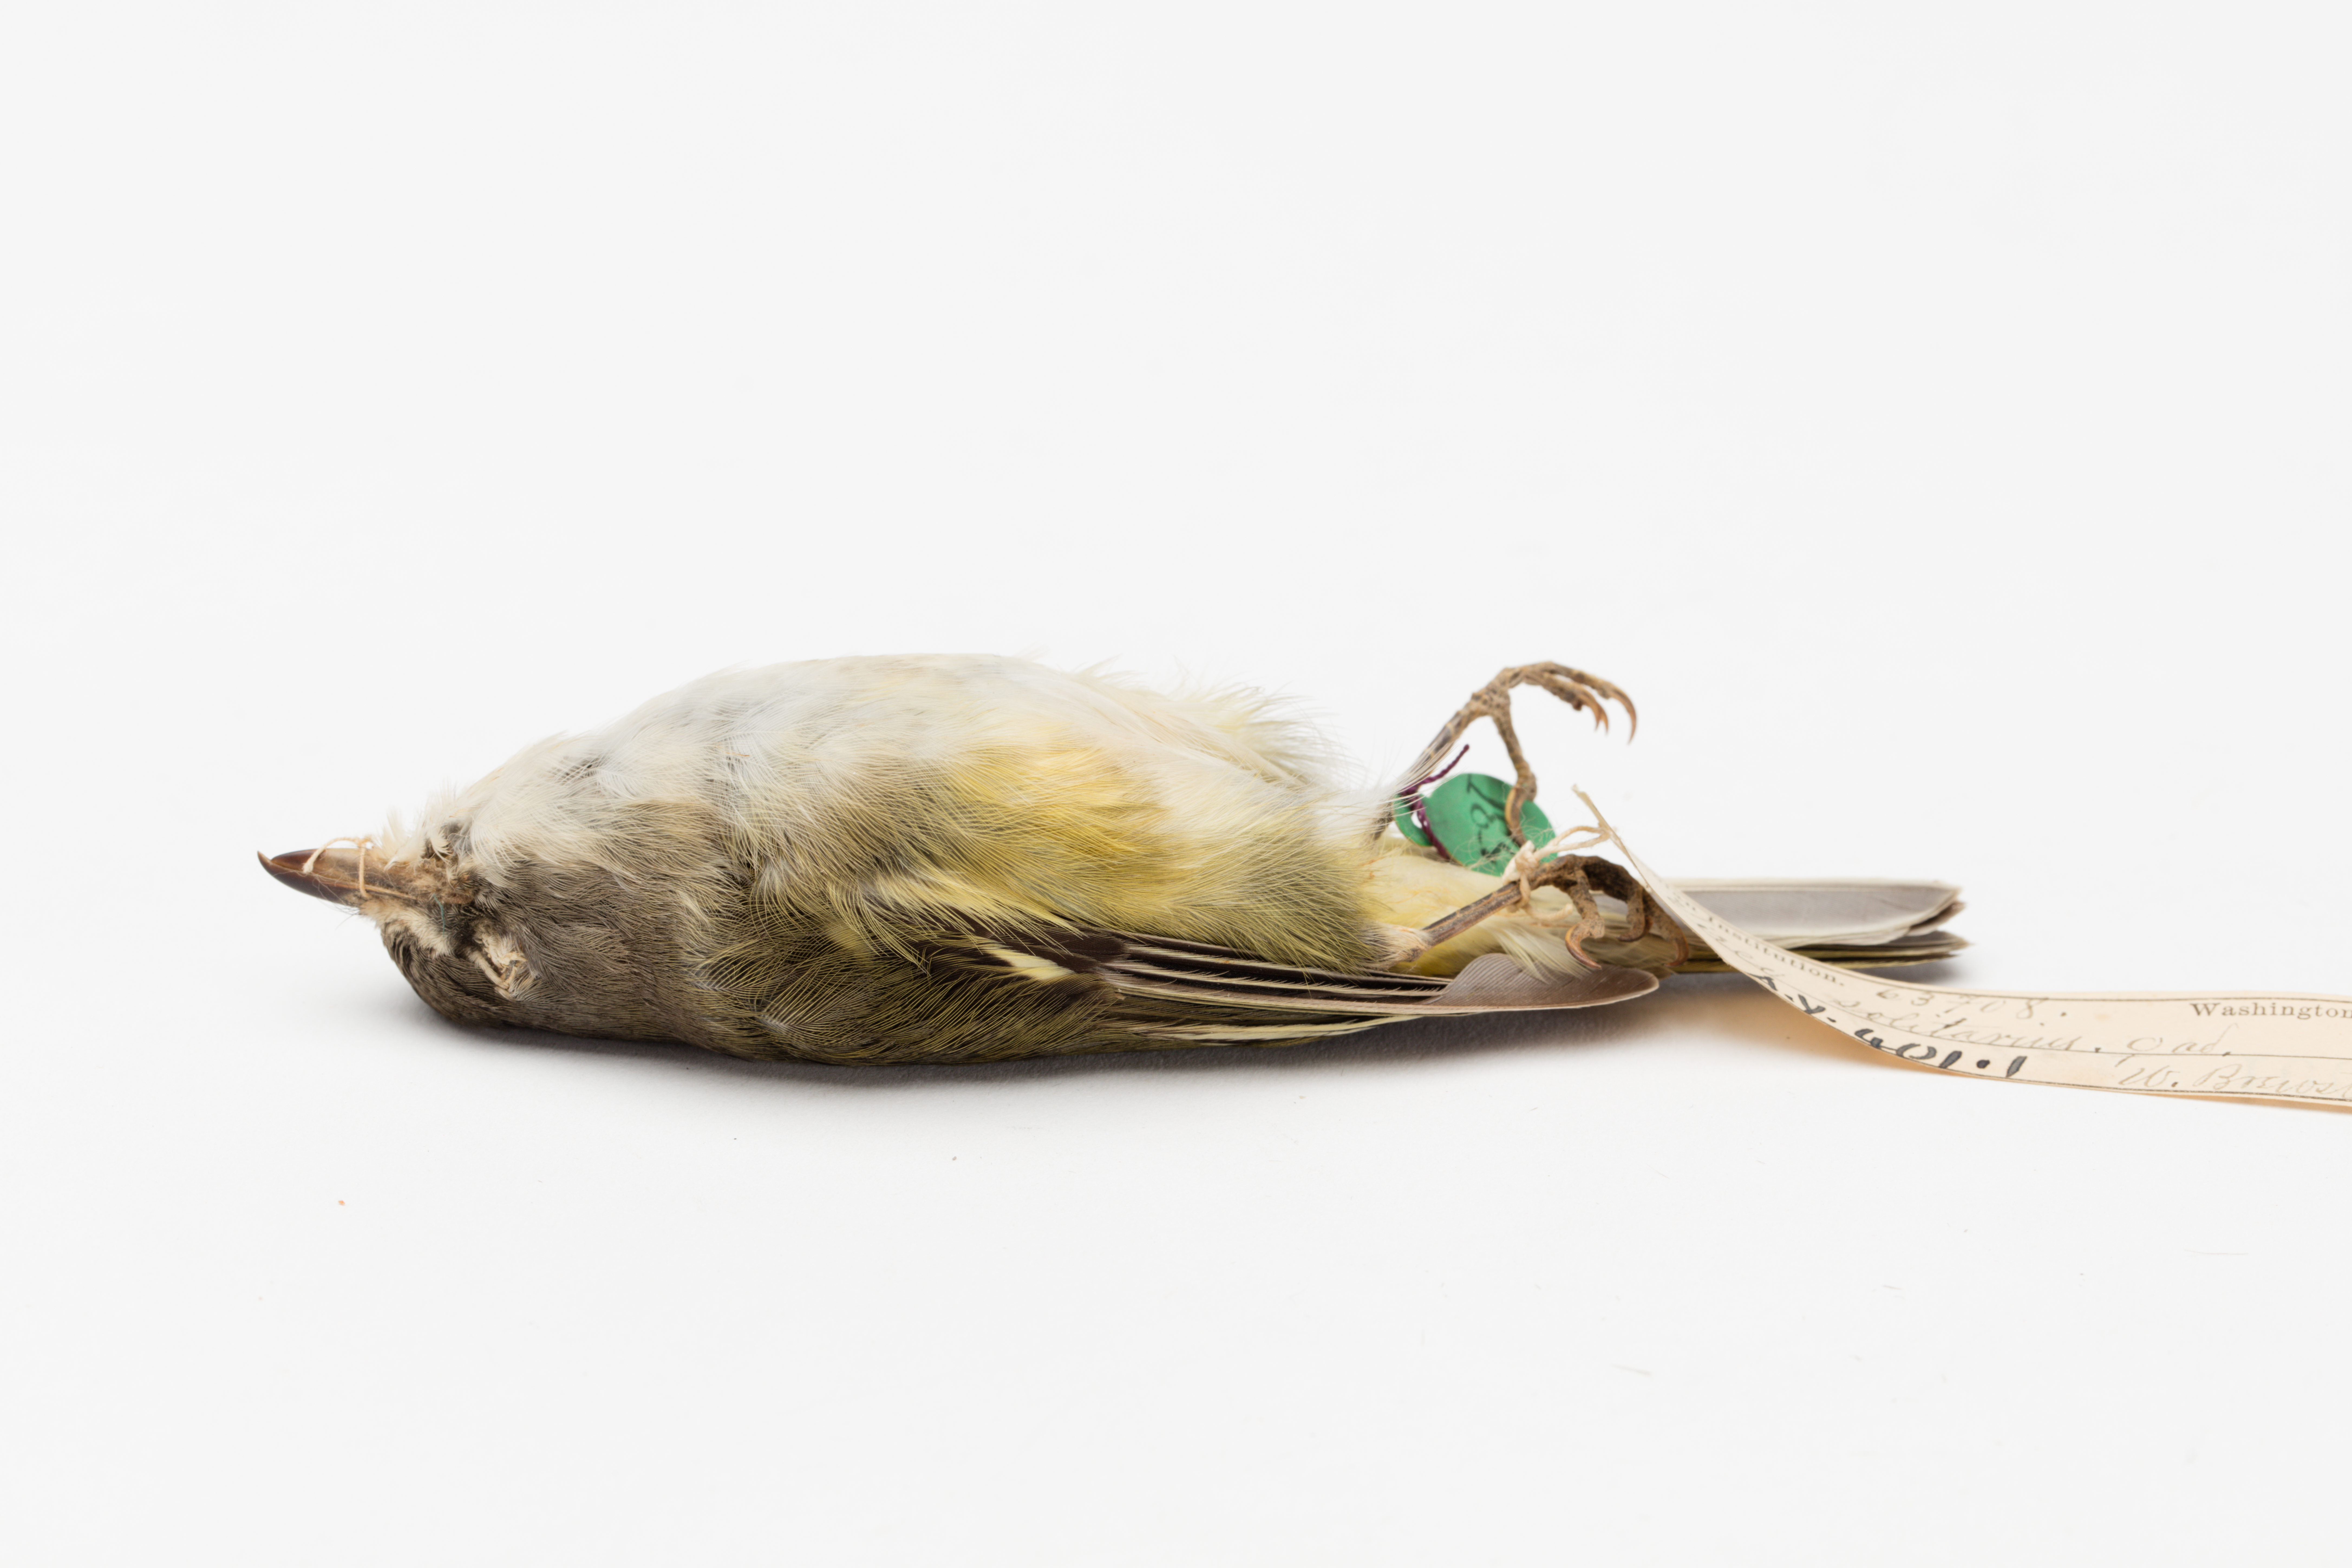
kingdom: Animalia
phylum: Chordata
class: Aves
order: Passeriformes
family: Vireonidae
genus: Vireo
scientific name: Vireo solitarius
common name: Blue-headed vireo
